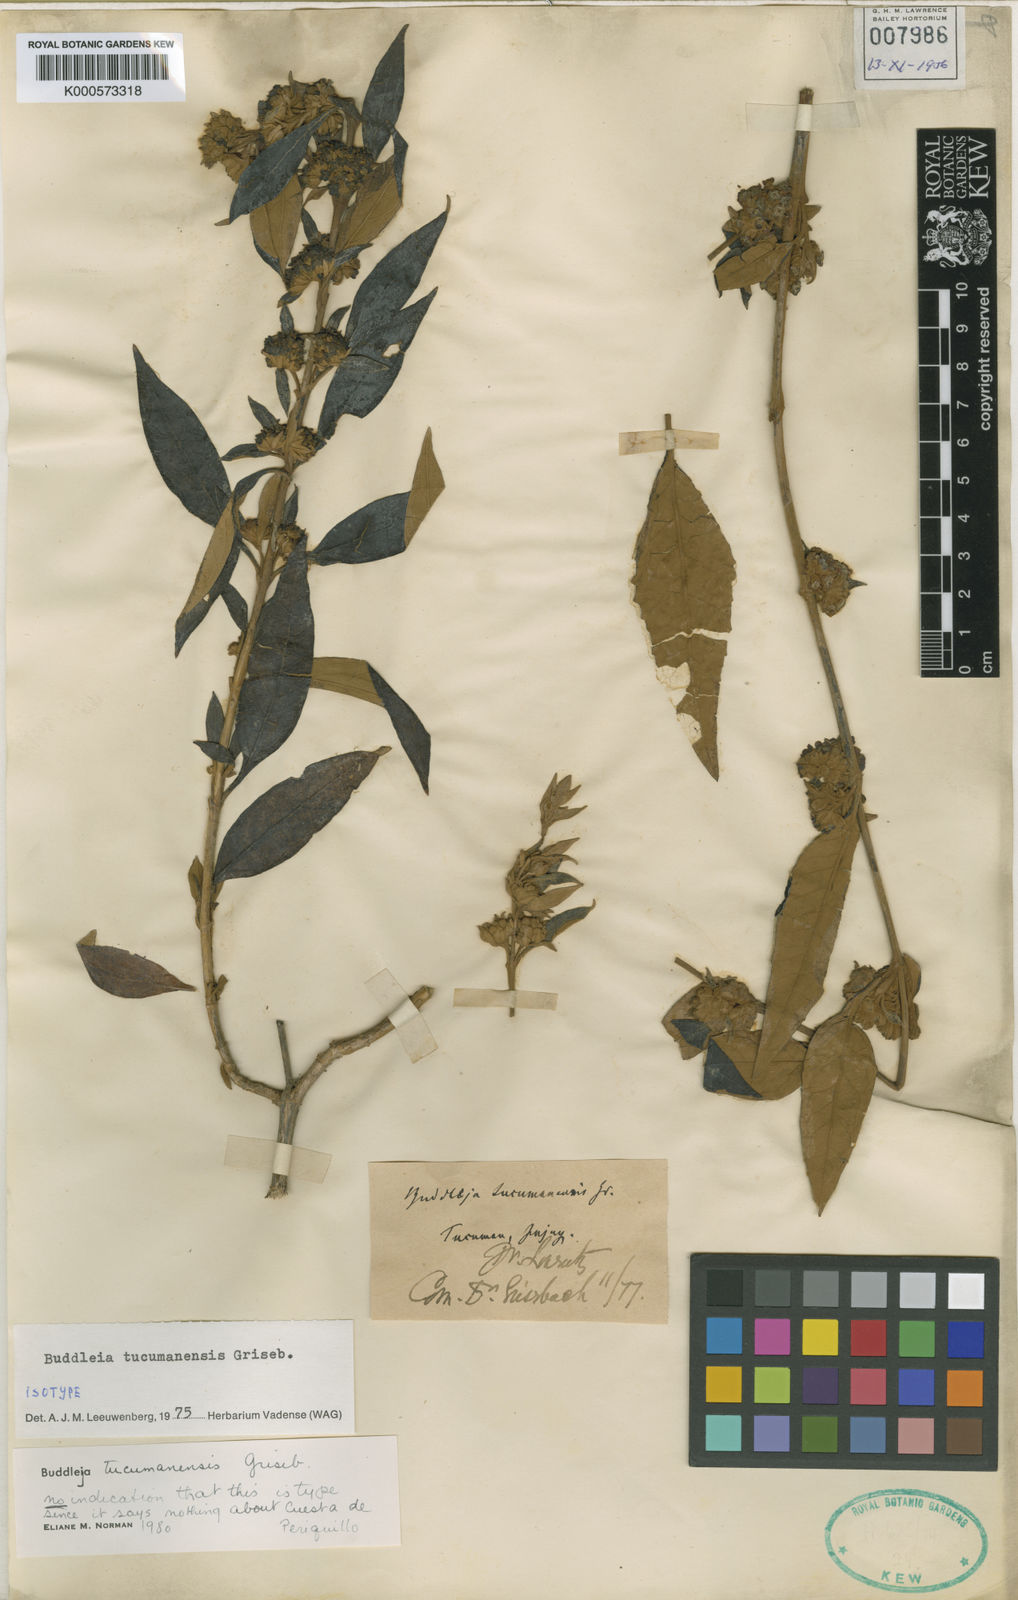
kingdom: Plantae
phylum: Tracheophyta
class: Magnoliopsida
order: Lamiales
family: Scrophulariaceae
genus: Buddleja
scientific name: Buddleja tucumanensis
